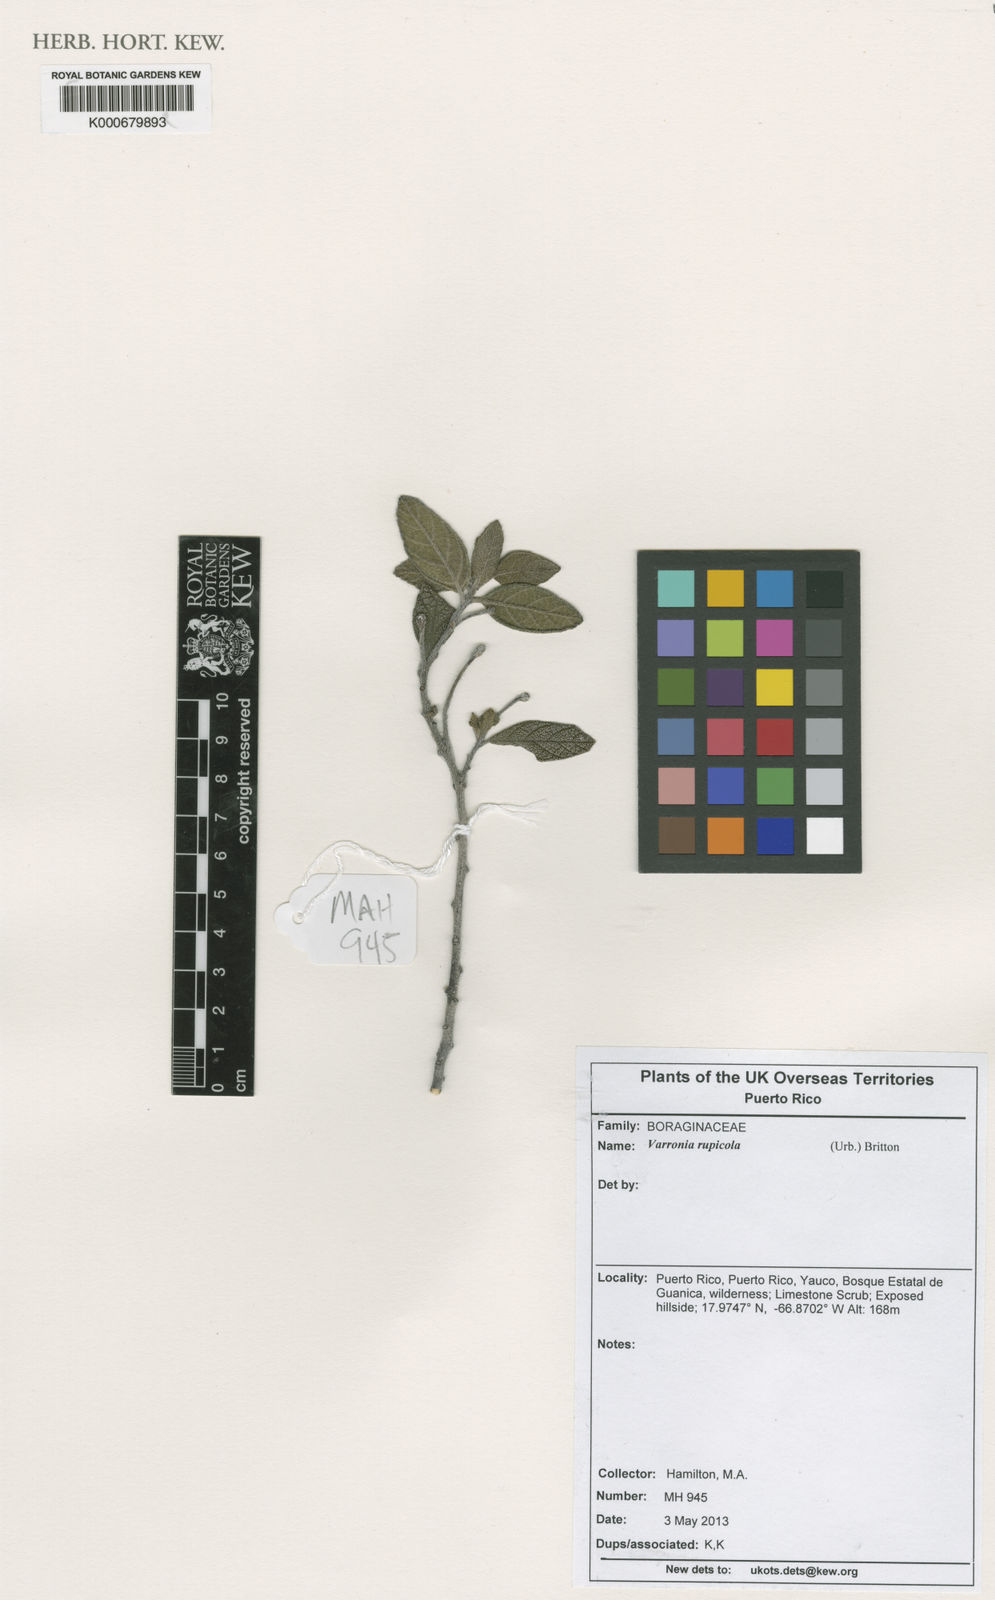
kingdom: Plantae
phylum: Tracheophyta
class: Magnoliopsida
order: Boraginales
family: Cordiaceae
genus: Varronia
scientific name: Varronia rupicola
